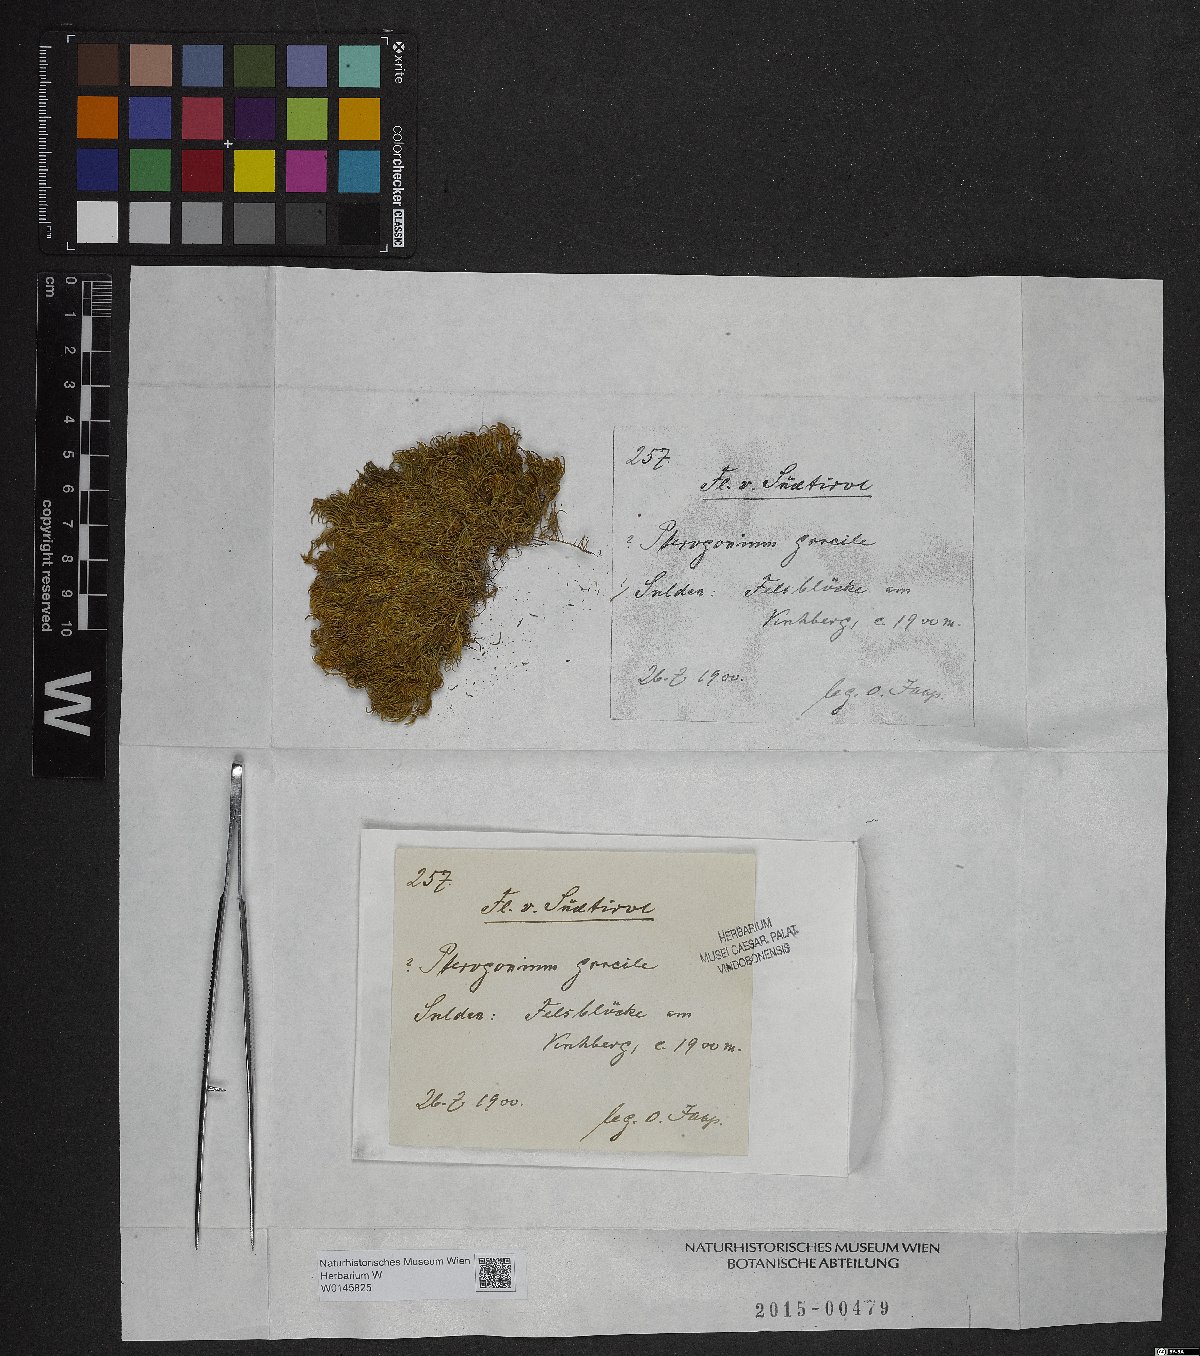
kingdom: Plantae
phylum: Bryophyta
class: Bryopsida
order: Hypnales
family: Lembophyllaceae
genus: Nogopterium
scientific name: Nogopterium gracile
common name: Bird's-foot wing-moss
